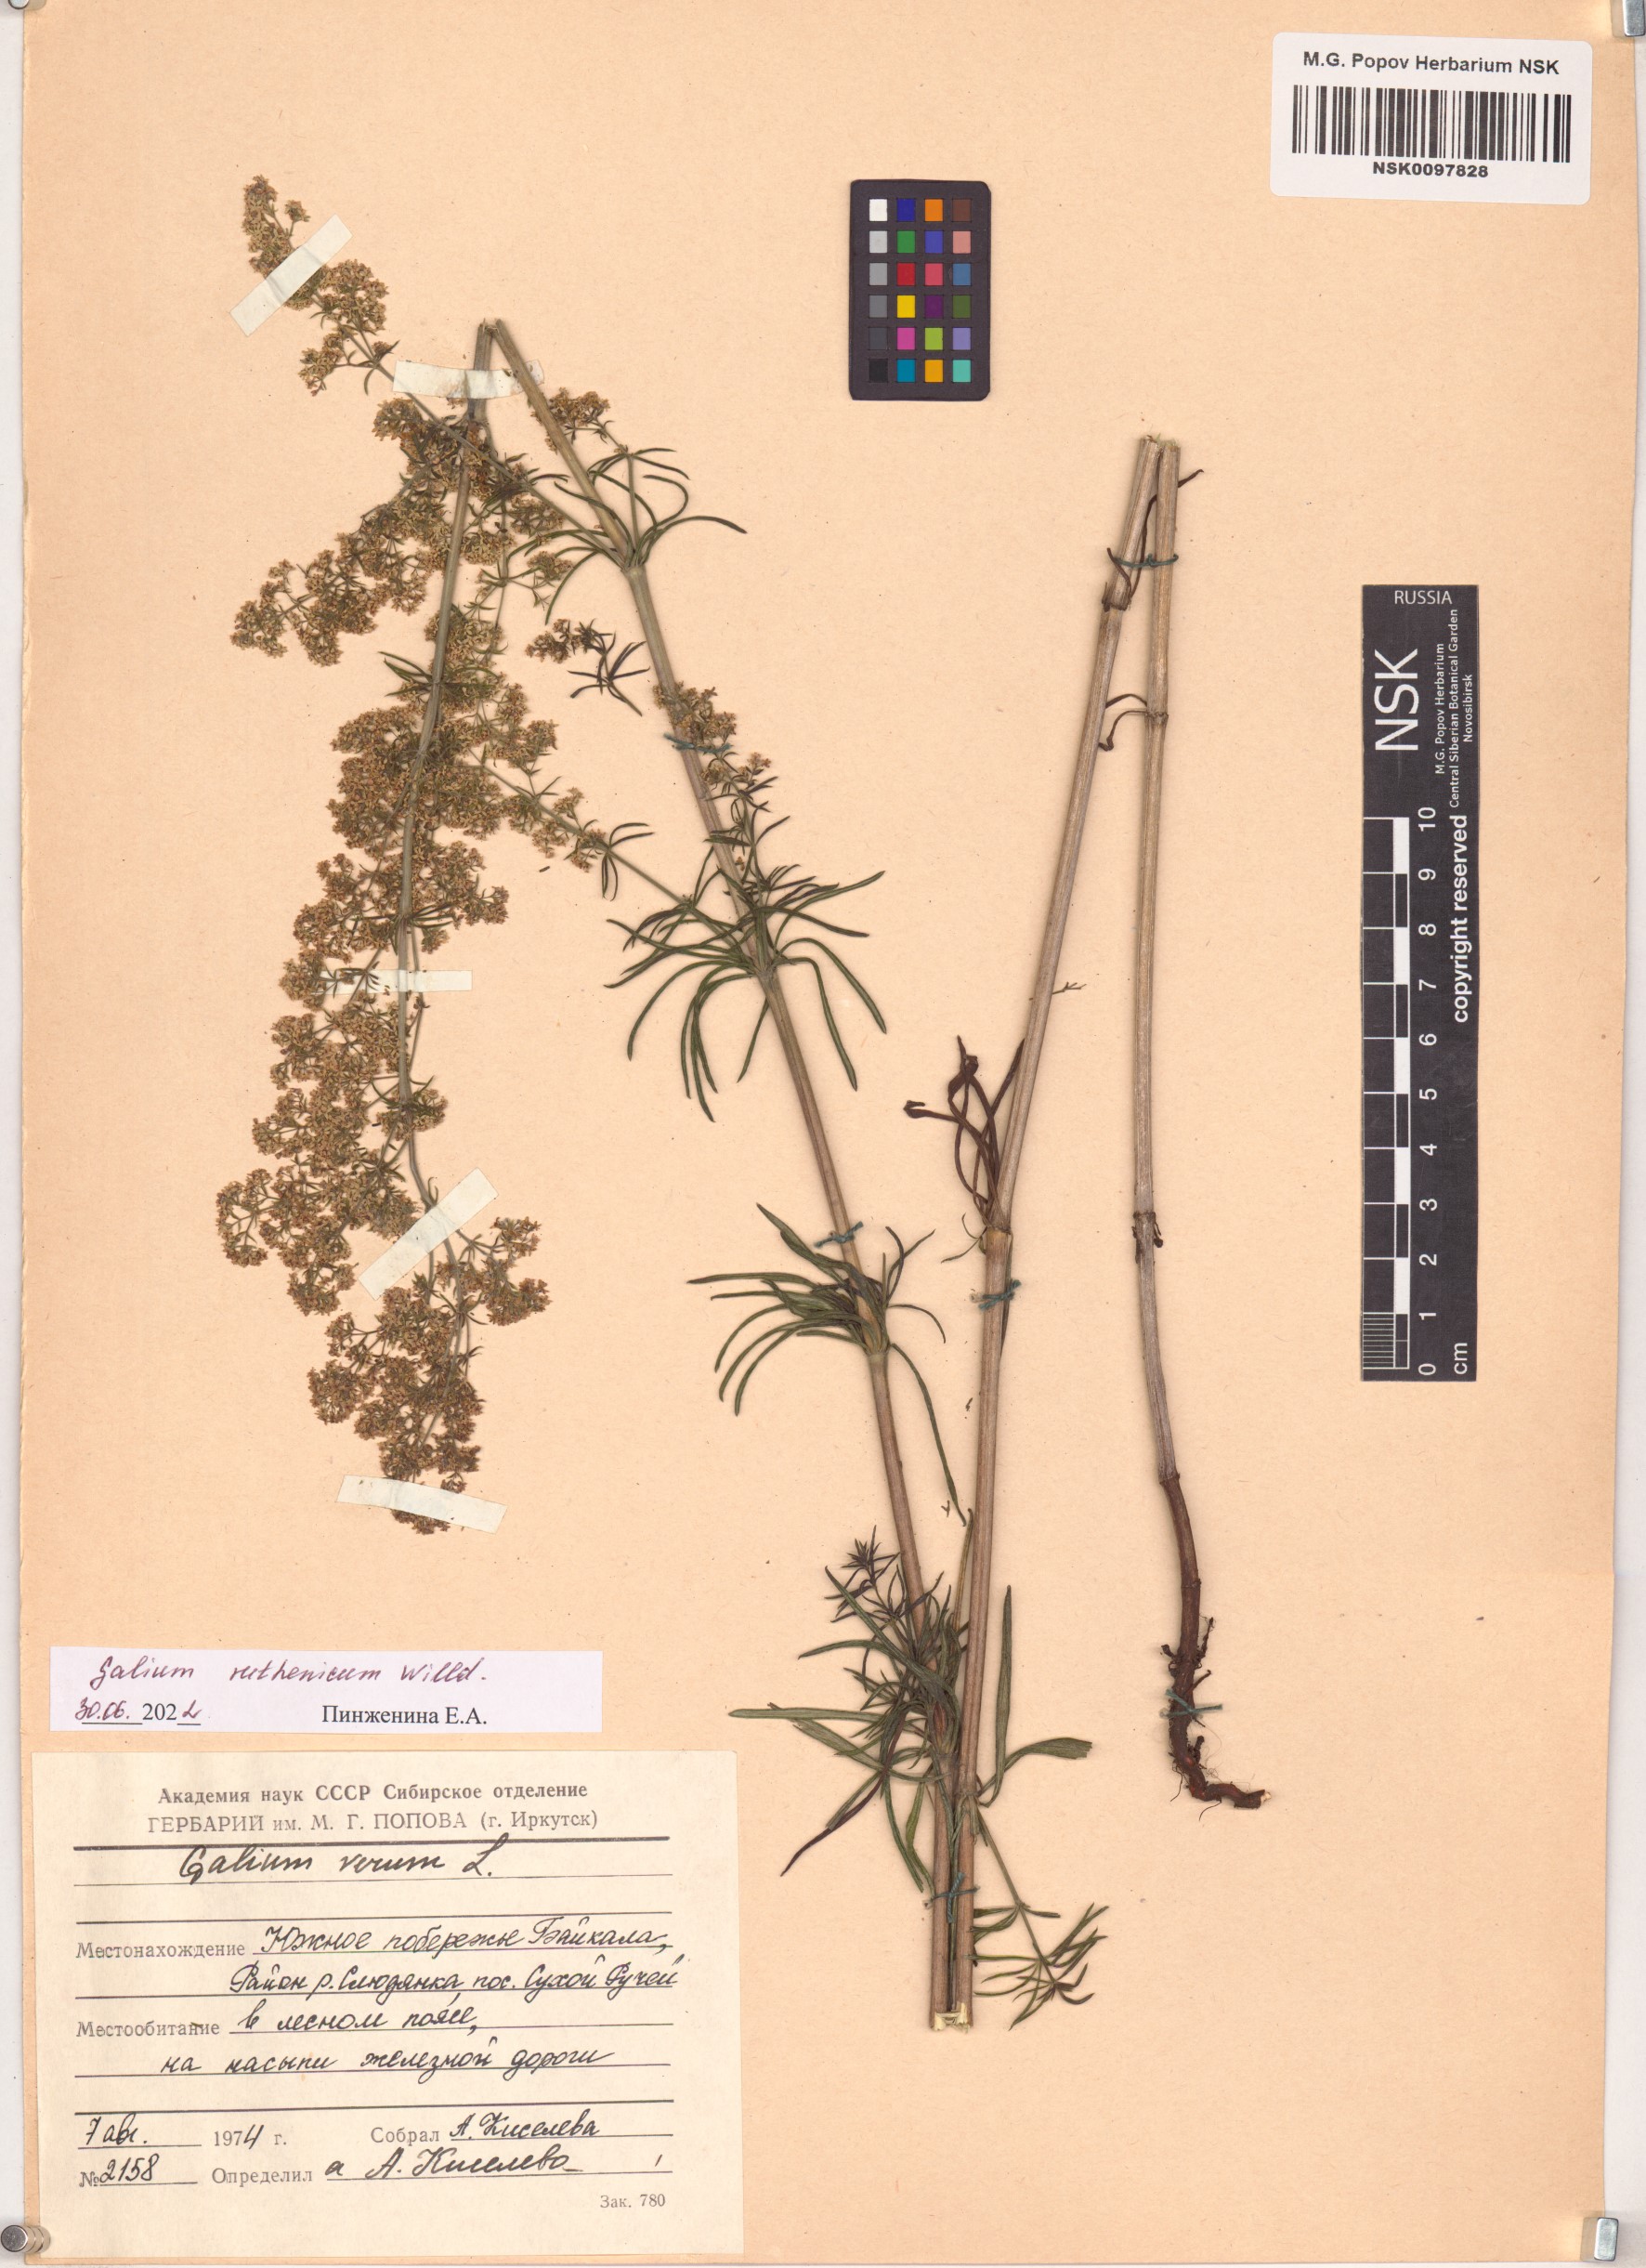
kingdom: Plantae
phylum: Tracheophyta
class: Magnoliopsida
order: Gentianales
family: Rubiaceae
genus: Galium
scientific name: Galium verum
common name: Lady's bedstraw
